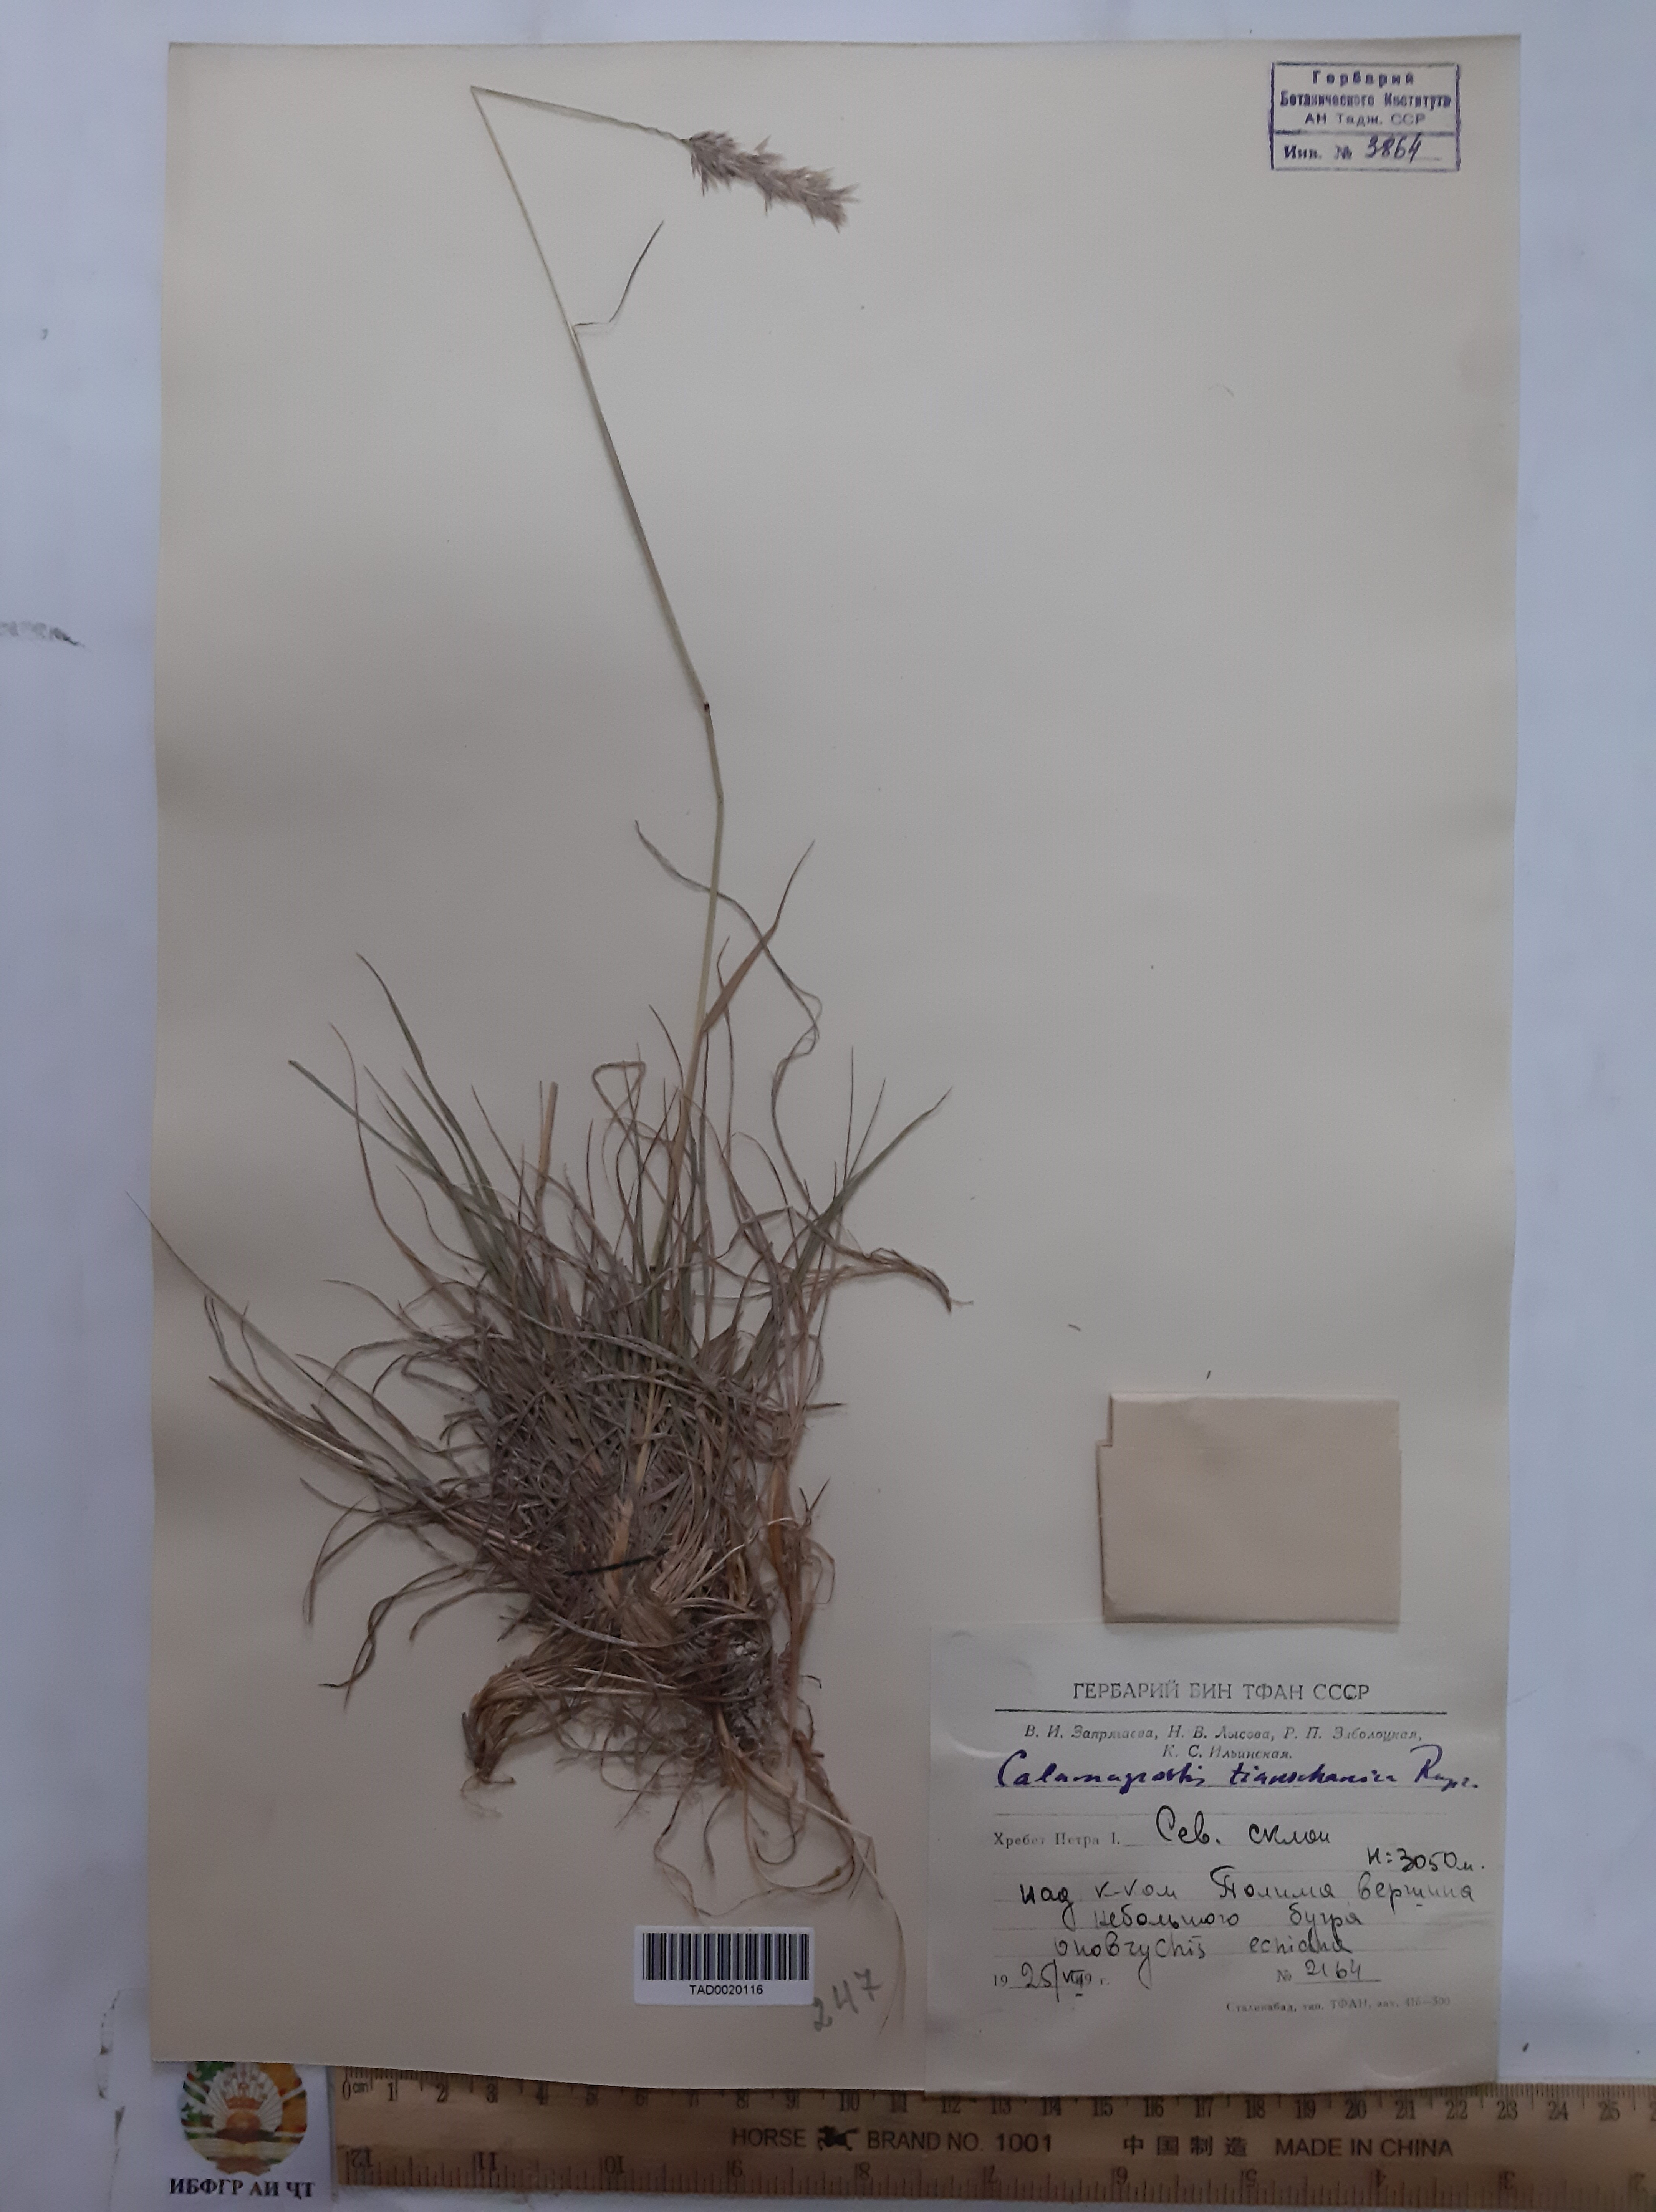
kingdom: Plantae
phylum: Tracheophyta
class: Liliopsida
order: Poales
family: Poaceae
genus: Calamagrostis
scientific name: Calamagrostis tianschanica
